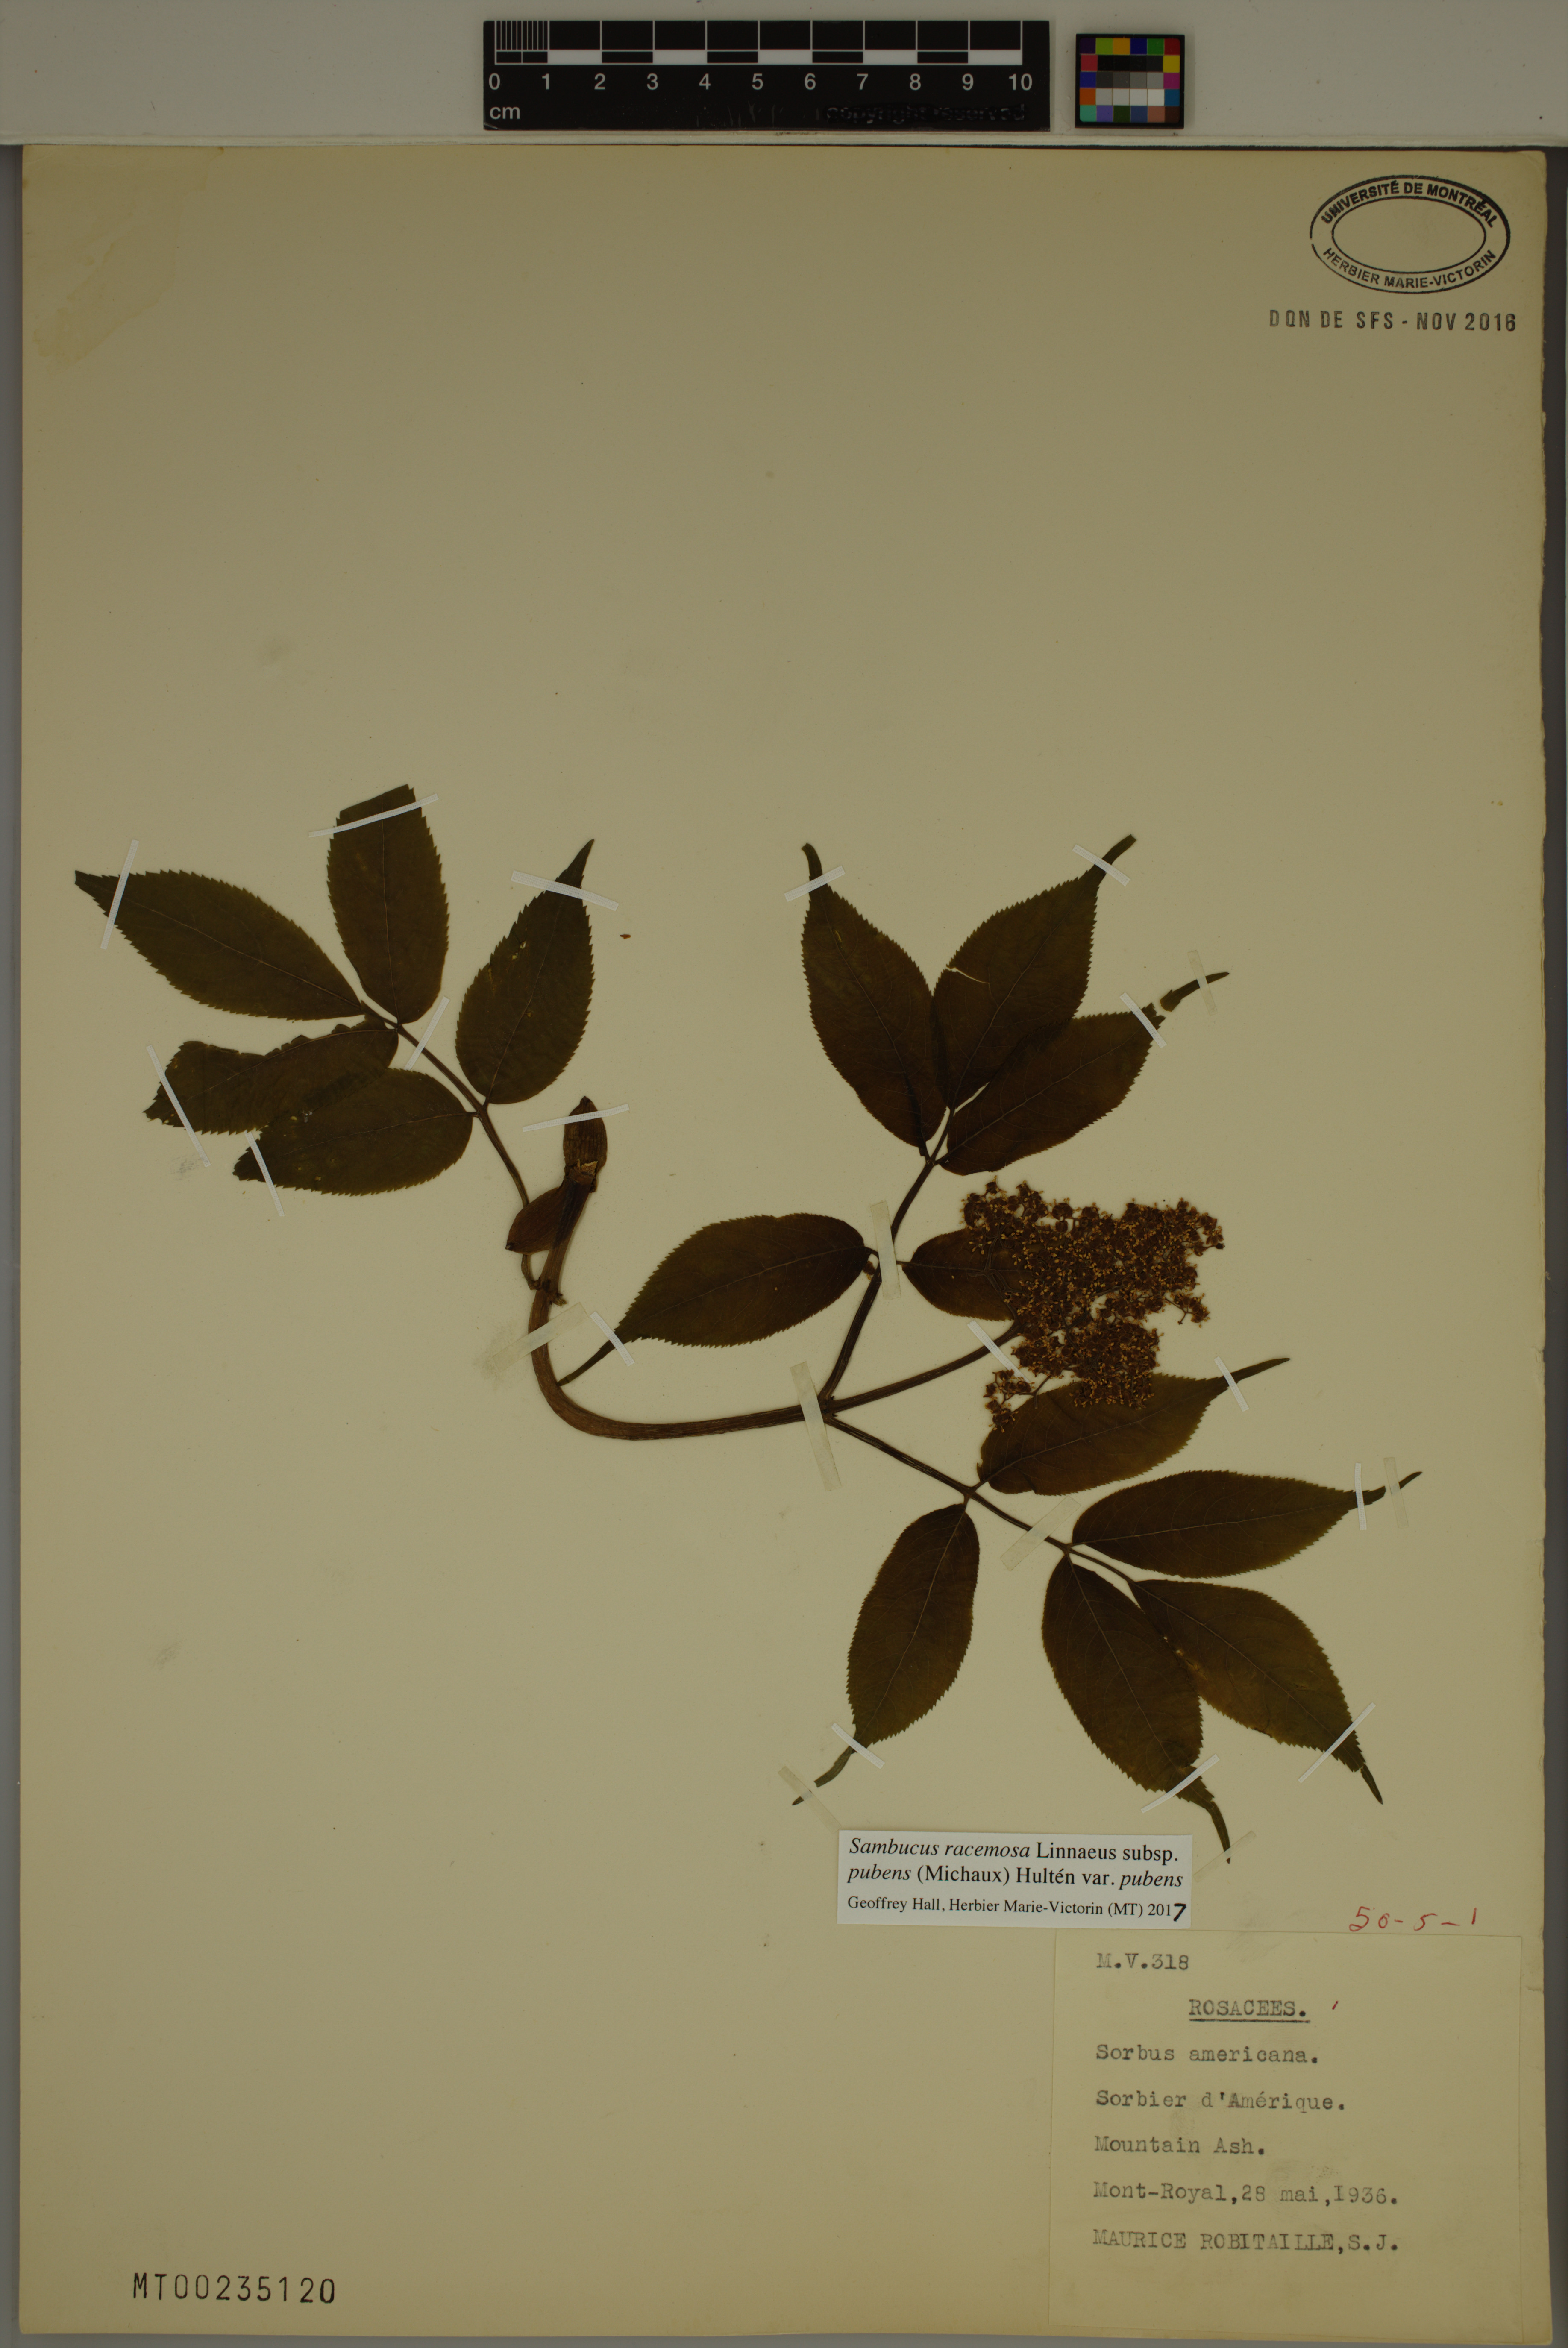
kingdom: Plantae
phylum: Tracheophyta
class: Magnoliopsida
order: Dipsacales
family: Viburnaceae
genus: Sambucus
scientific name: Sambucus racemosa
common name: Red-berried elder
